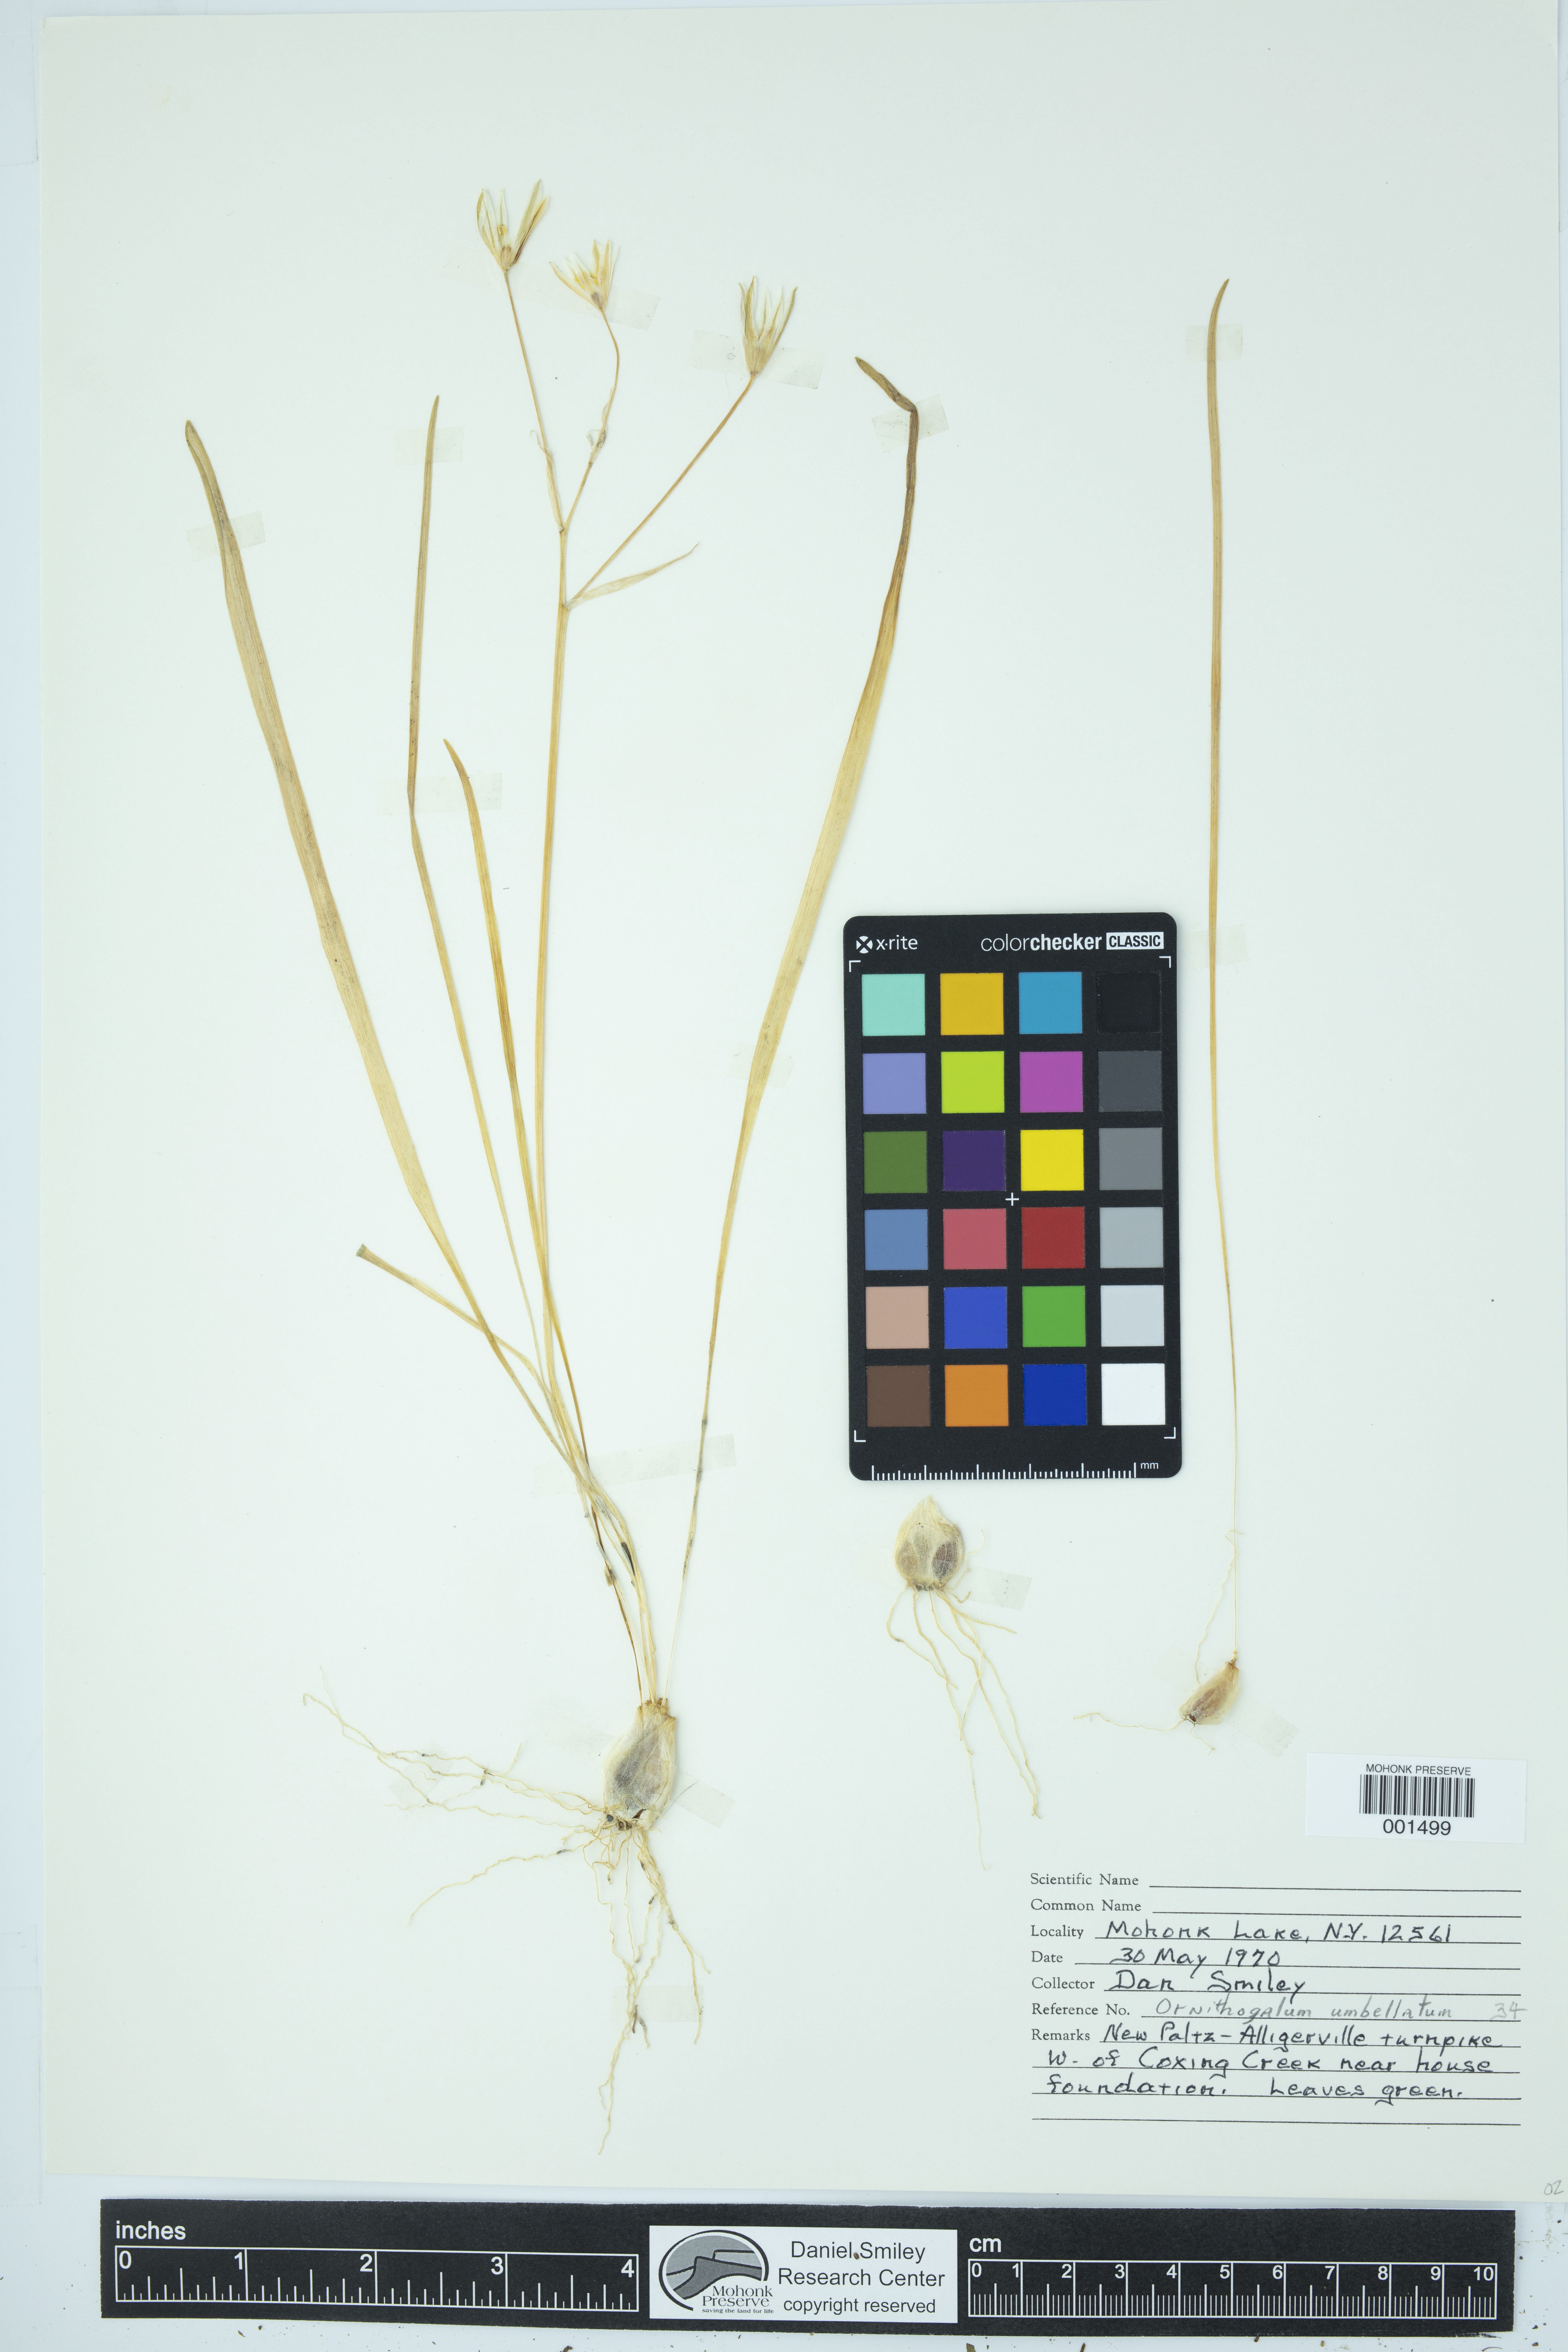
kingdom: Plantae
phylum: Tracheophyta
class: Liliopsida
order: Asparagales
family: Asparagaceae
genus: Ornithogalum
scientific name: Ornithogalum umbellatum
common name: Garden star-of-bethlehem
